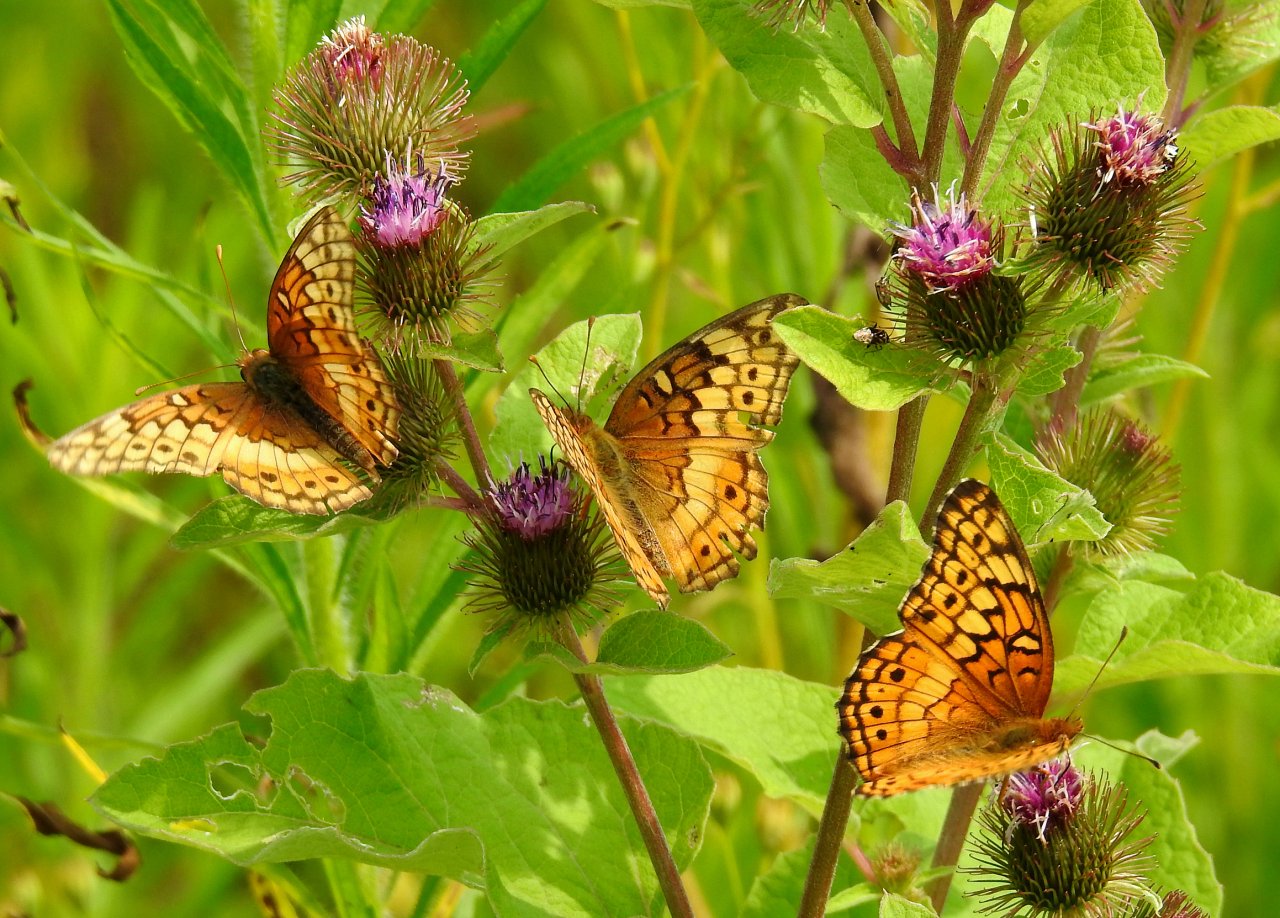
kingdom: Animalia
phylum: Arthropoda
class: Insecta
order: Lepidoptera
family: Nymphalidae
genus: Euptoieta
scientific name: Euptoieta claudia
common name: Variegated Fritillary
